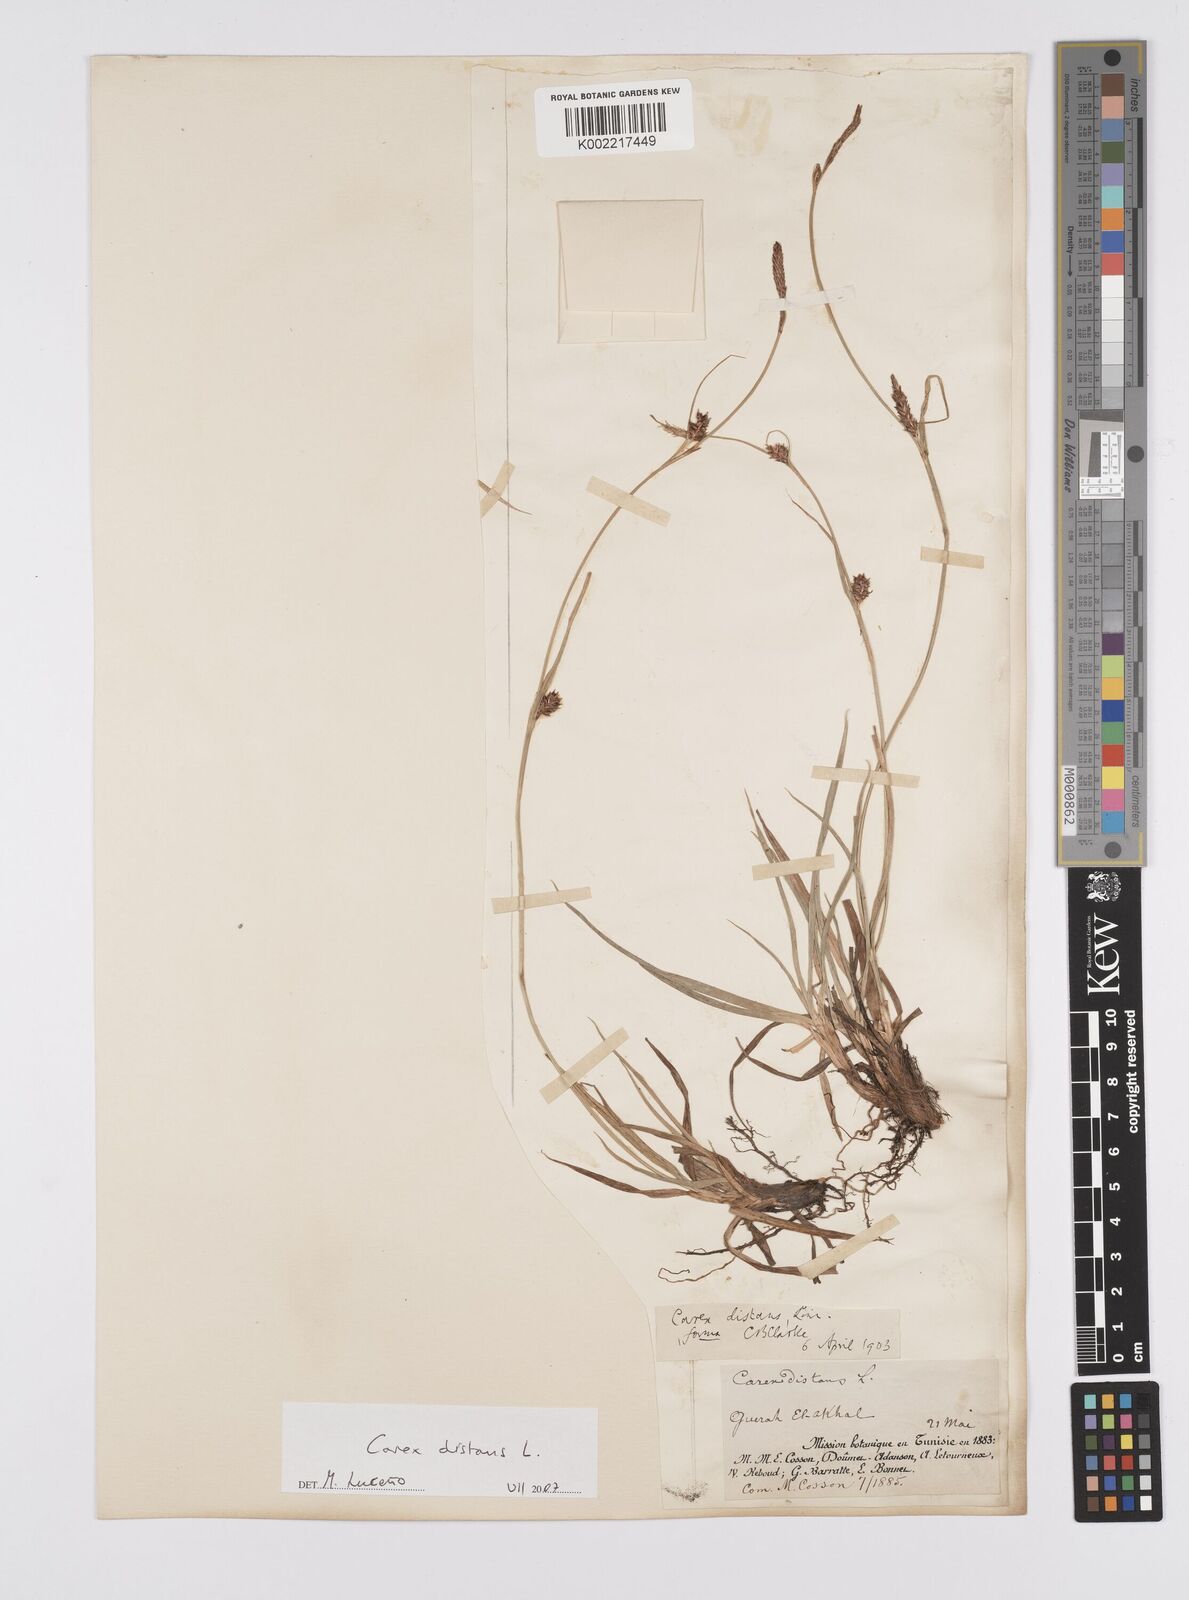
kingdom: Plantae
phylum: Tracheophyta
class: Liliopsida
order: Poales
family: Cyperaceae
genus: Carex
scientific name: Carex distans
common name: Distant sedge
